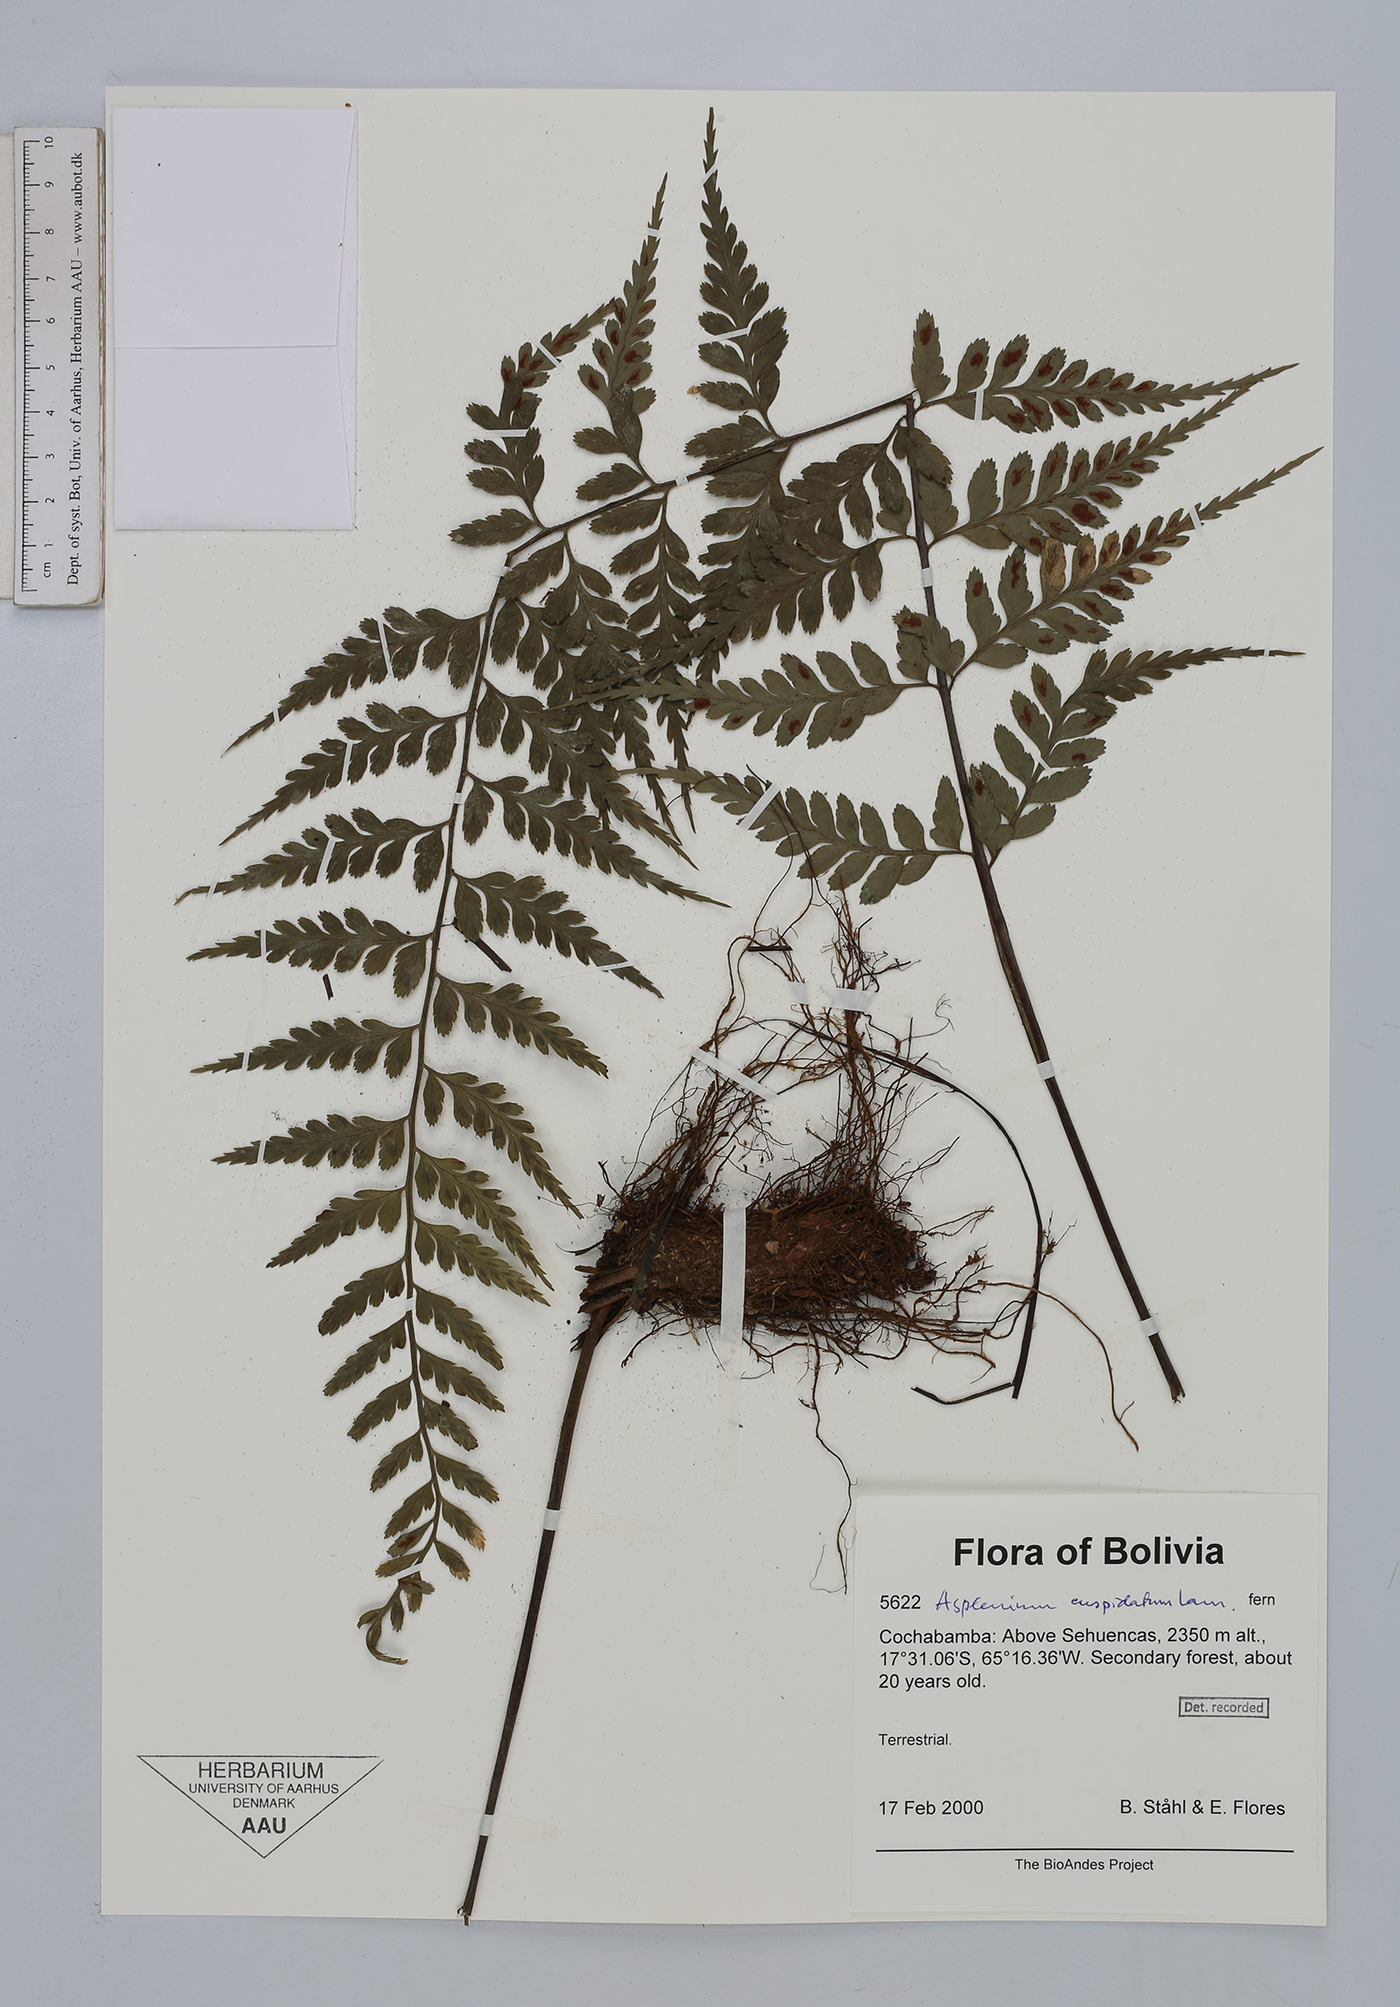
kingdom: Plantae
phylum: Tracheophyta
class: Polypodiopsida
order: Polypodiales
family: Aspleniaceae
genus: Asplenium
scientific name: Asplenium fragrans
